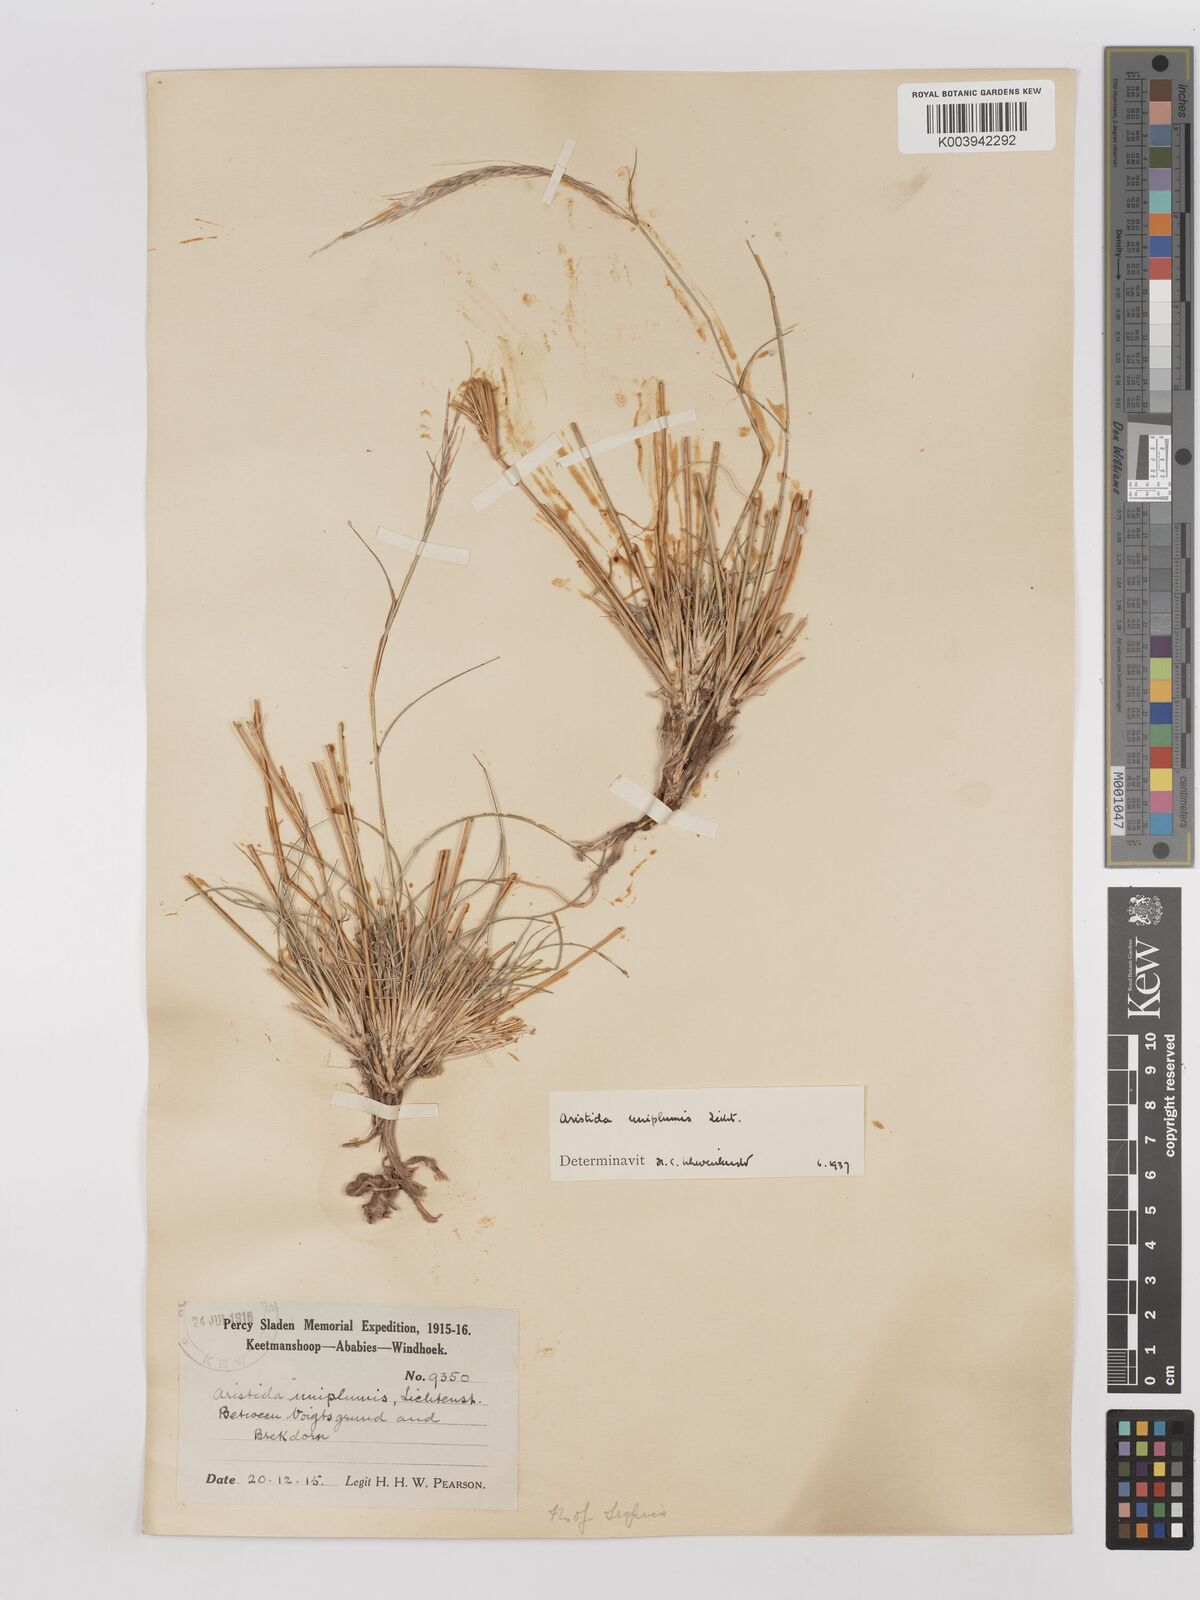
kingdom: Plantae
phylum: Tracheophyta
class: Liliopsida
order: Poales
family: Poaceae
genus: Stipagrostis
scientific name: Stipagrostis uniplumis
